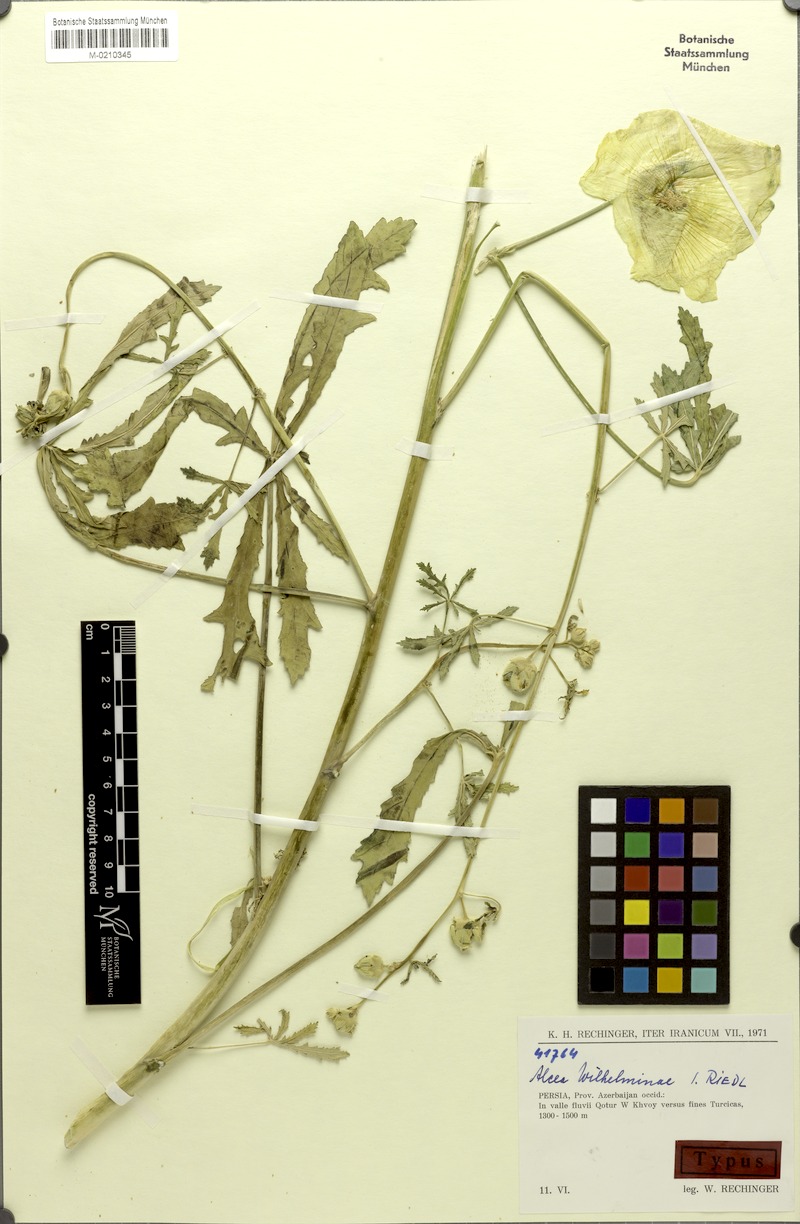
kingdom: Plantae
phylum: Tracheophyta
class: Magnoliopsida
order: Malvales
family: Malvaceae
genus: Alcea
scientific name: Alcea wilhelminae
